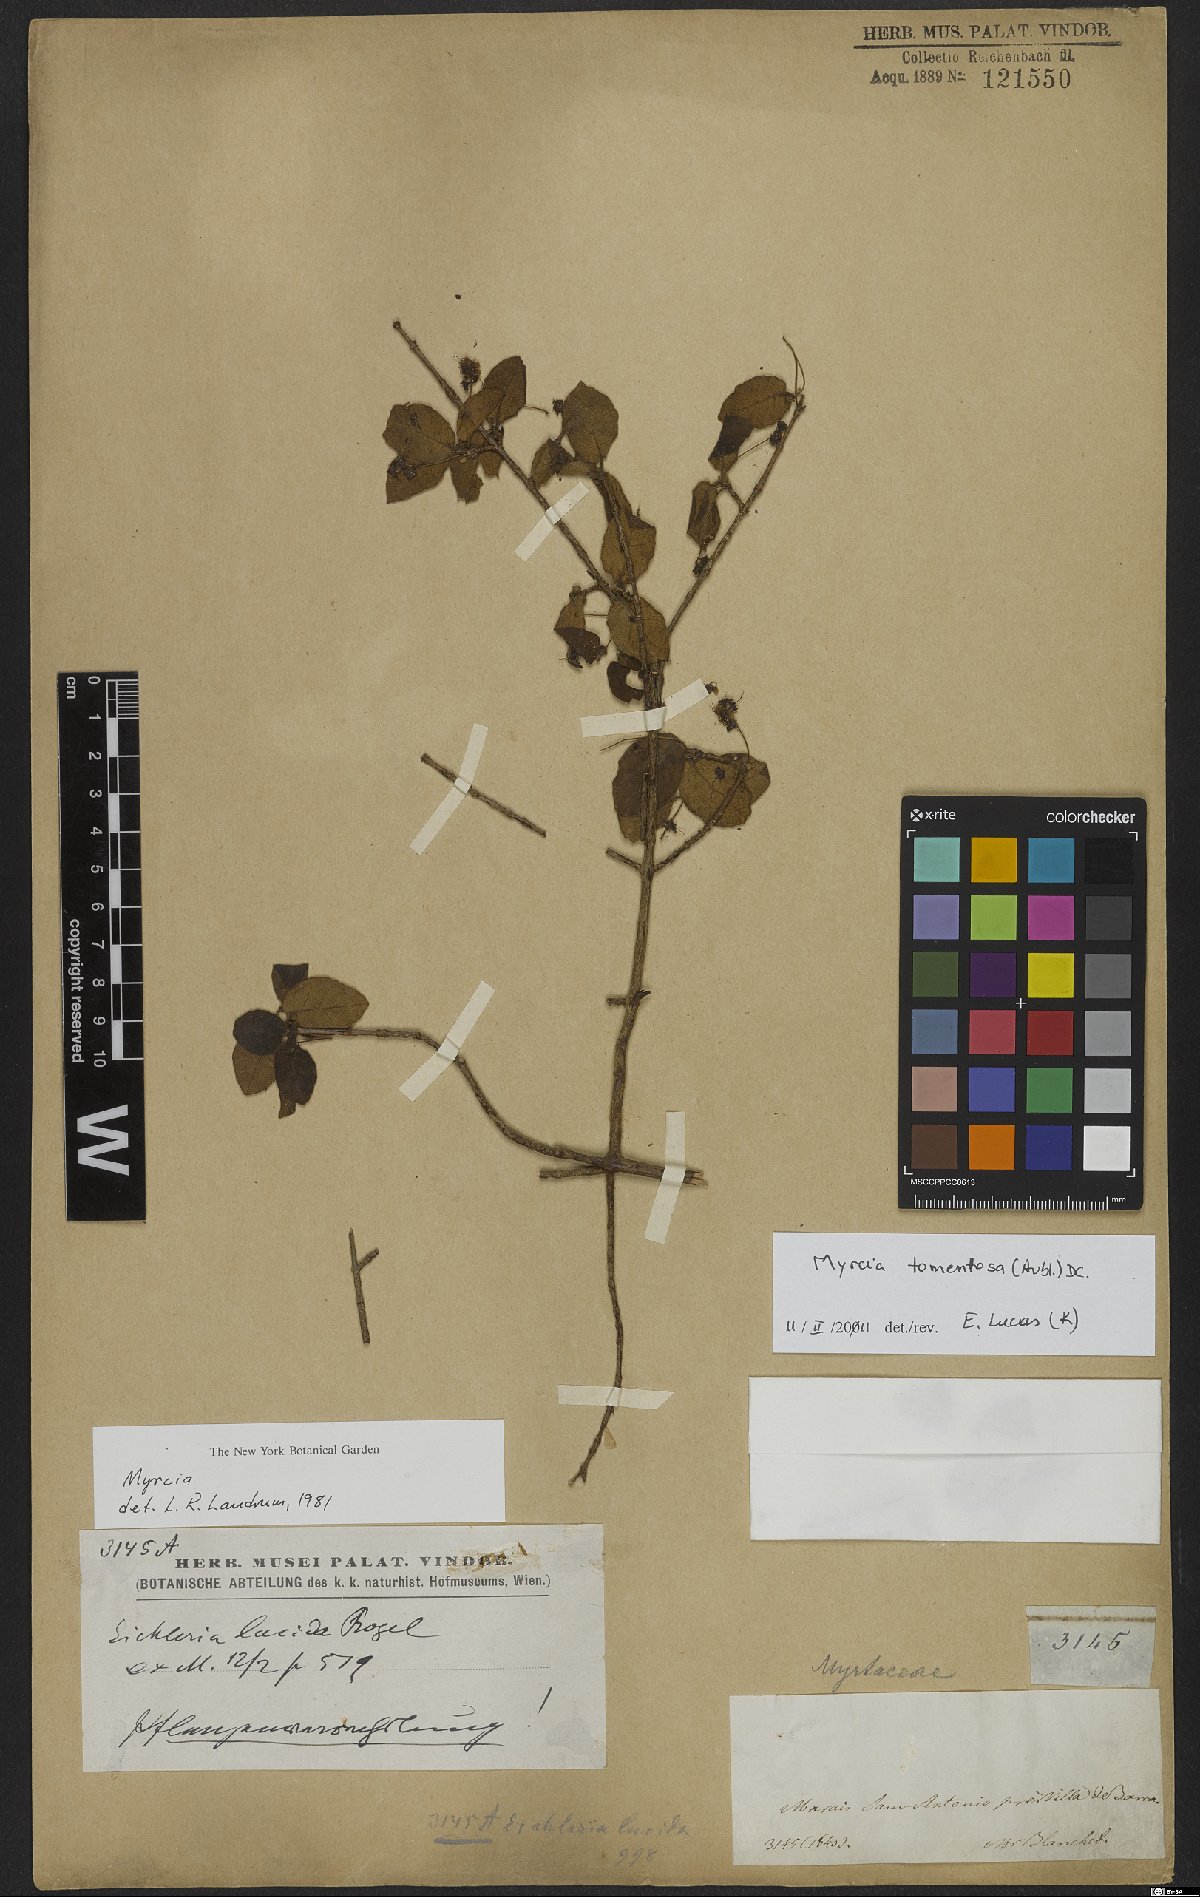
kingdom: Plantae
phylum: Tracheophyta
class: Magnoliopsida
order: Myrtales
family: Myrtaceae
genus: Myrcia
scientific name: Myrcia tomentosa
